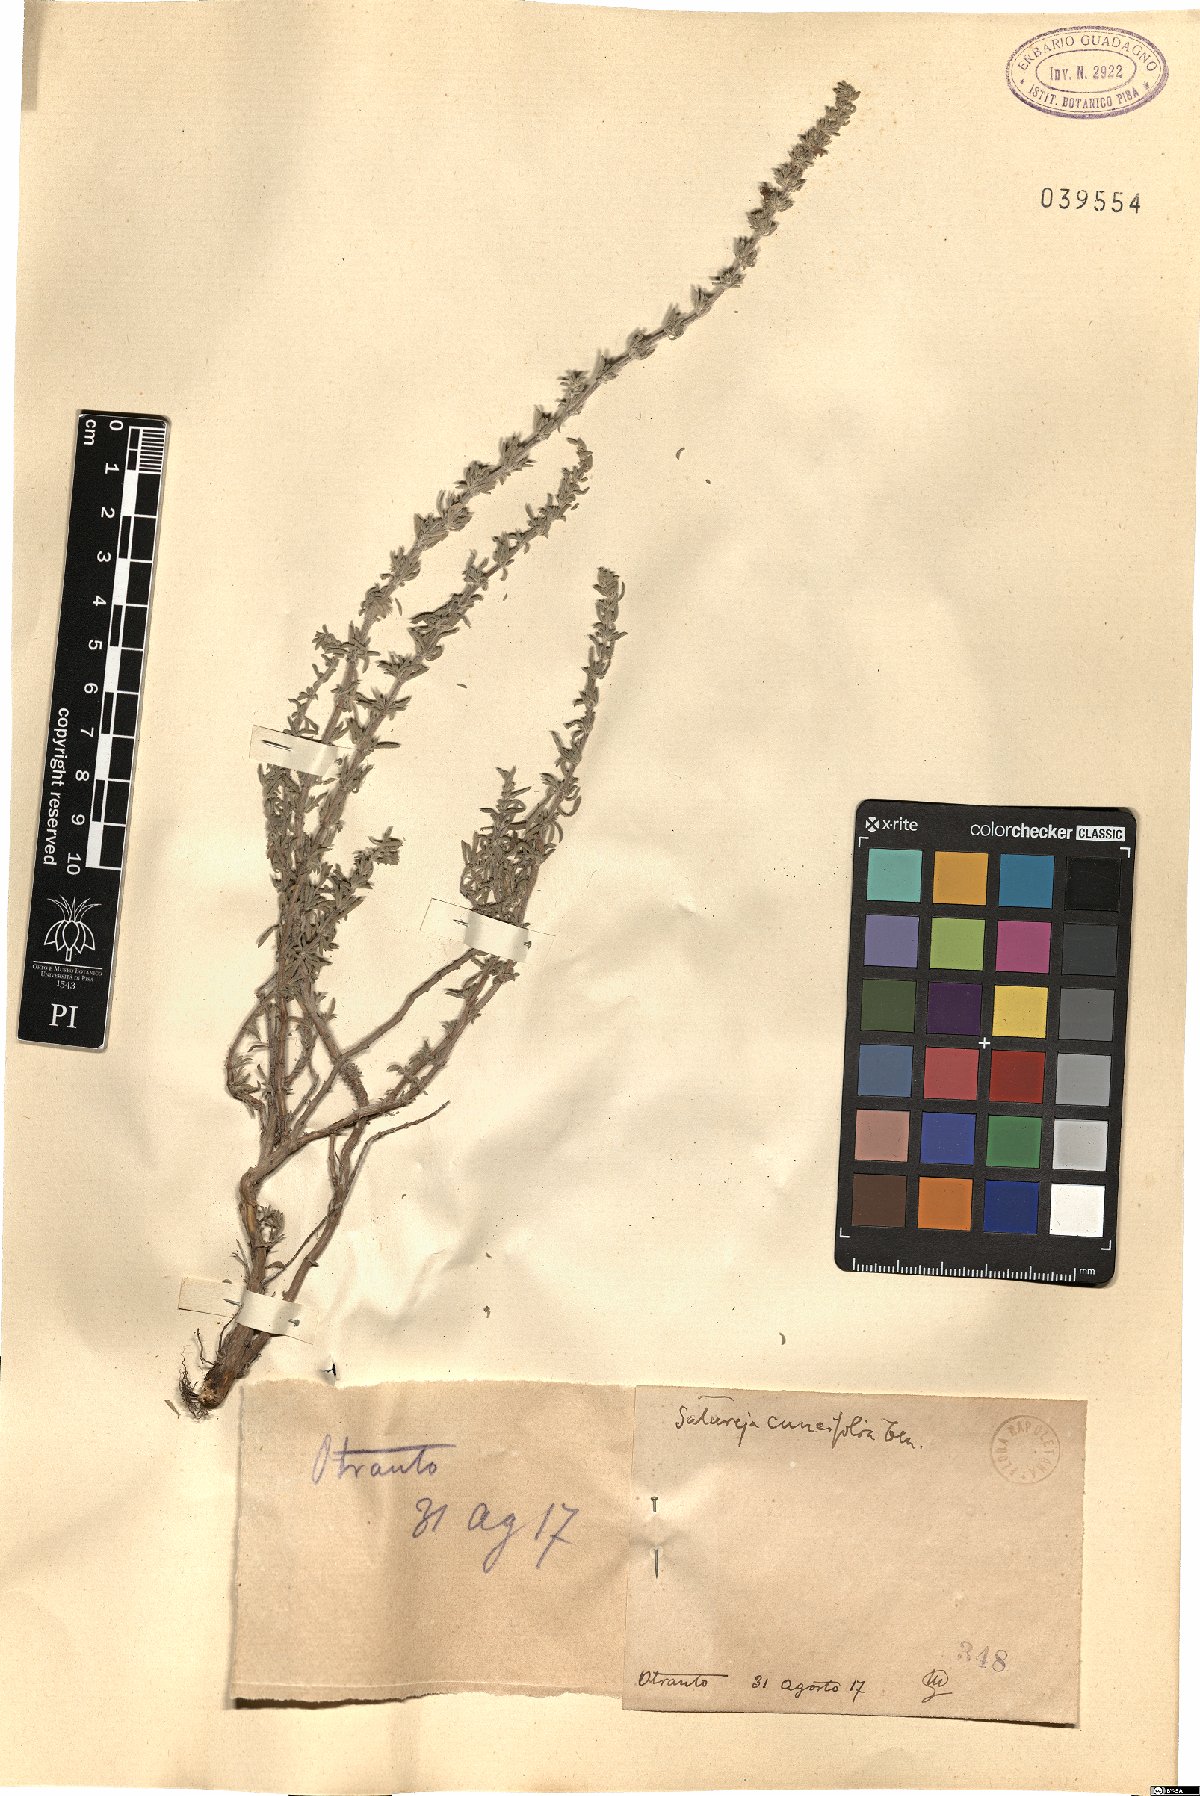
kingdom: Plantae
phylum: Tracheophyta
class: Magnoliopsida
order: Lamiales
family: Lamiaceae
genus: Satureja
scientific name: Satureja cuneifolia
